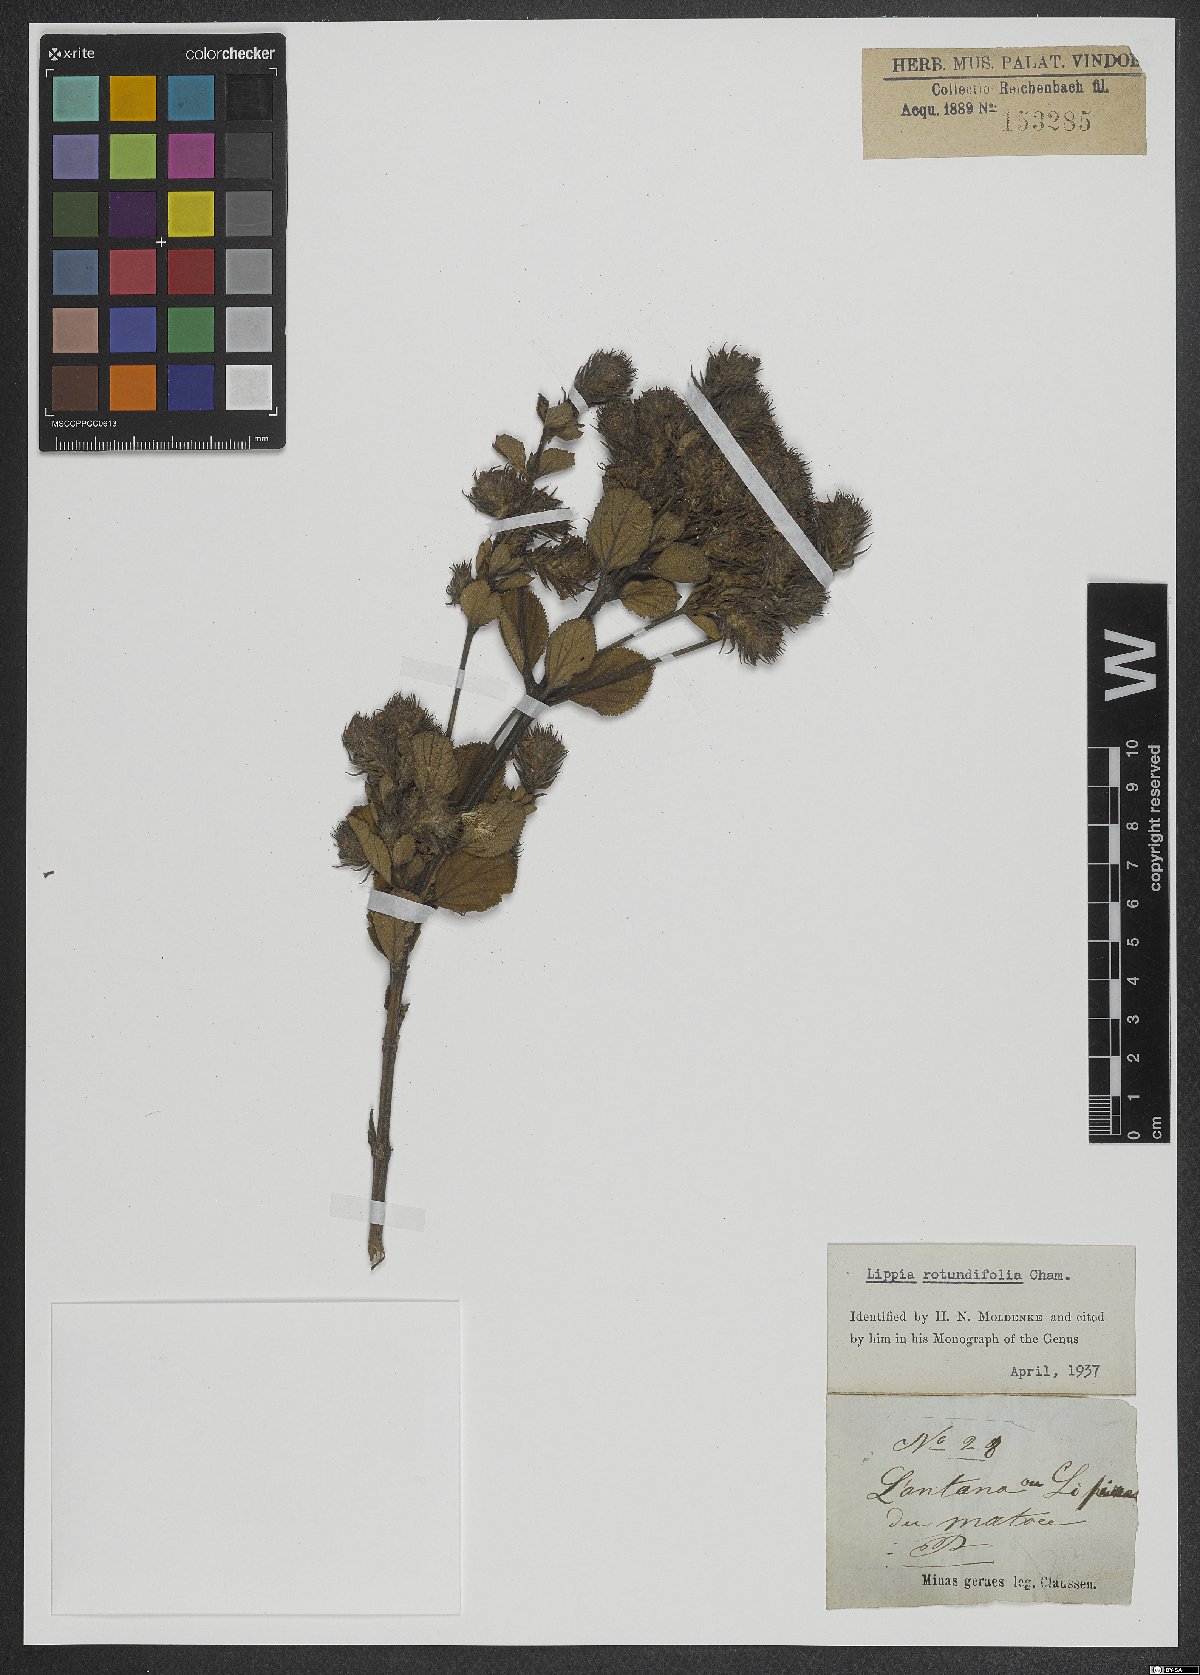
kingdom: Plantae
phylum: Tracheophyta
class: Magnoliopsida
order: Lamiales
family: Verbenaceae
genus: Lippia
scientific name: Lippia rotundifolia
